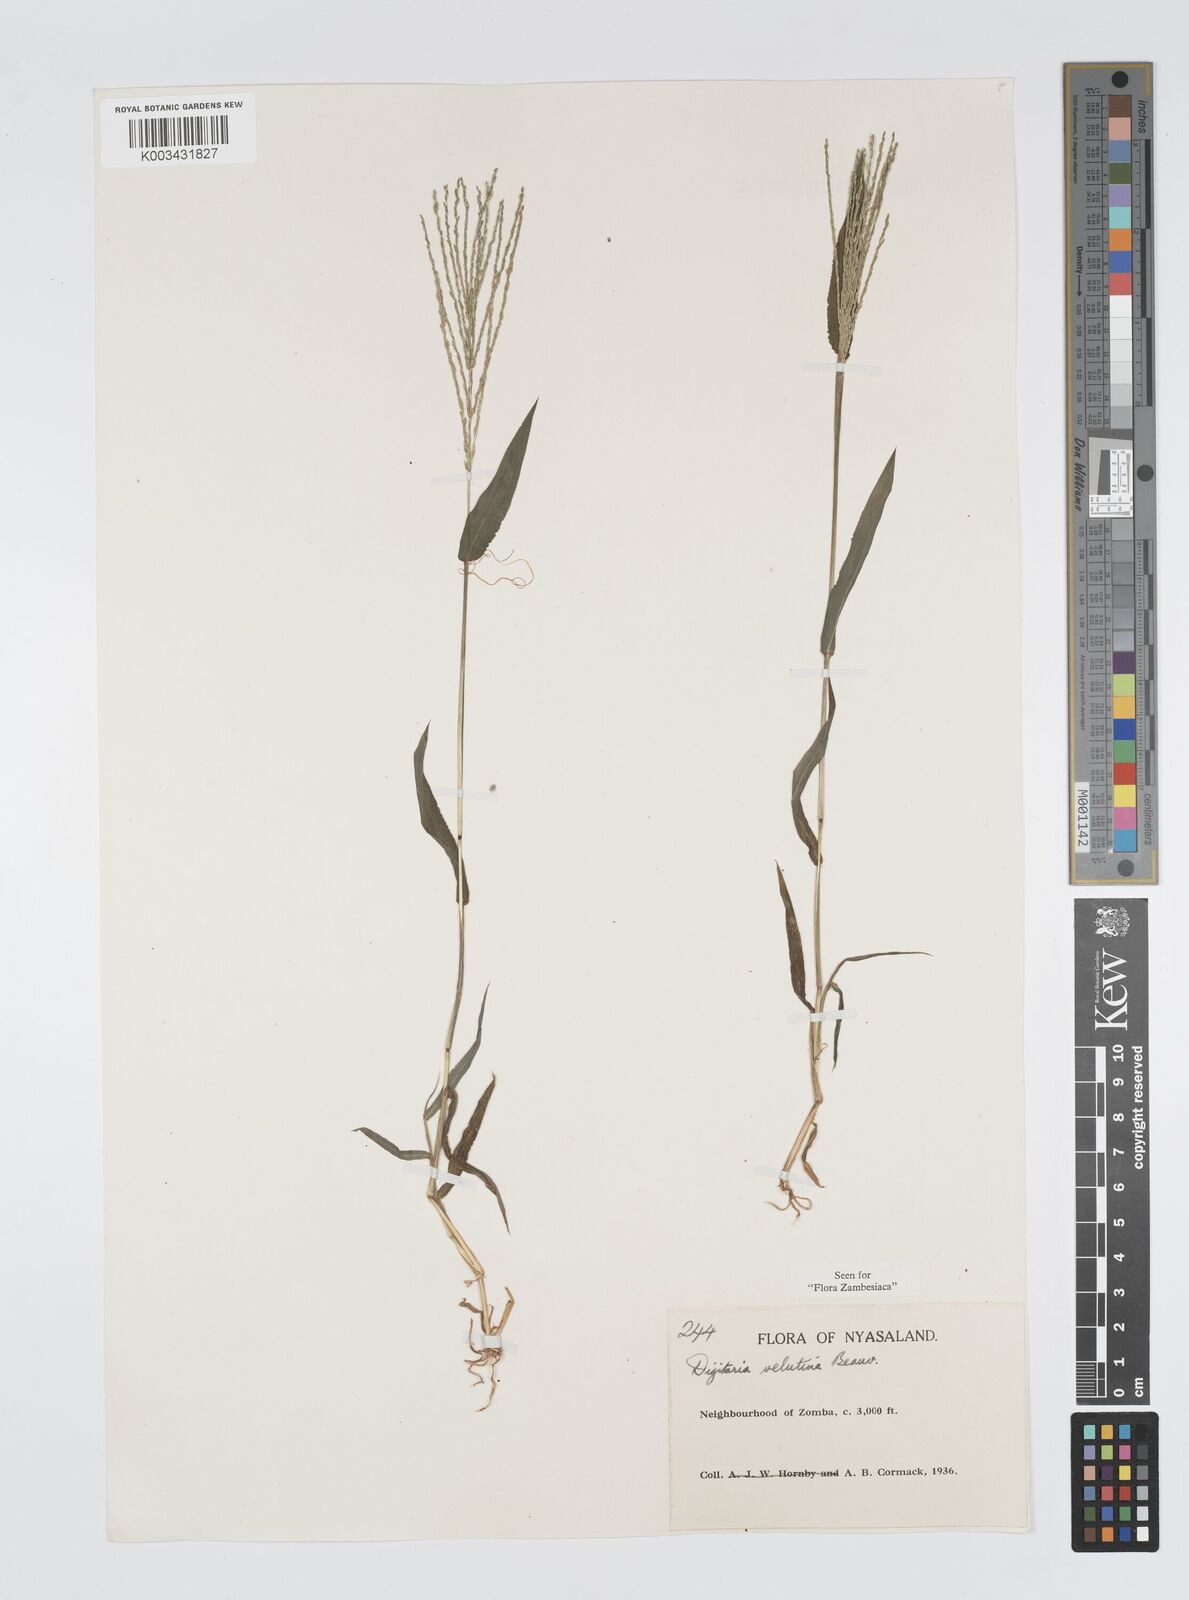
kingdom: Plantae
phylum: Tracheophyta
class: Liliopsida
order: Poales
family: Poaceae
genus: Digitaria
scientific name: Digitaria velutina
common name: Long-plume finger grass
